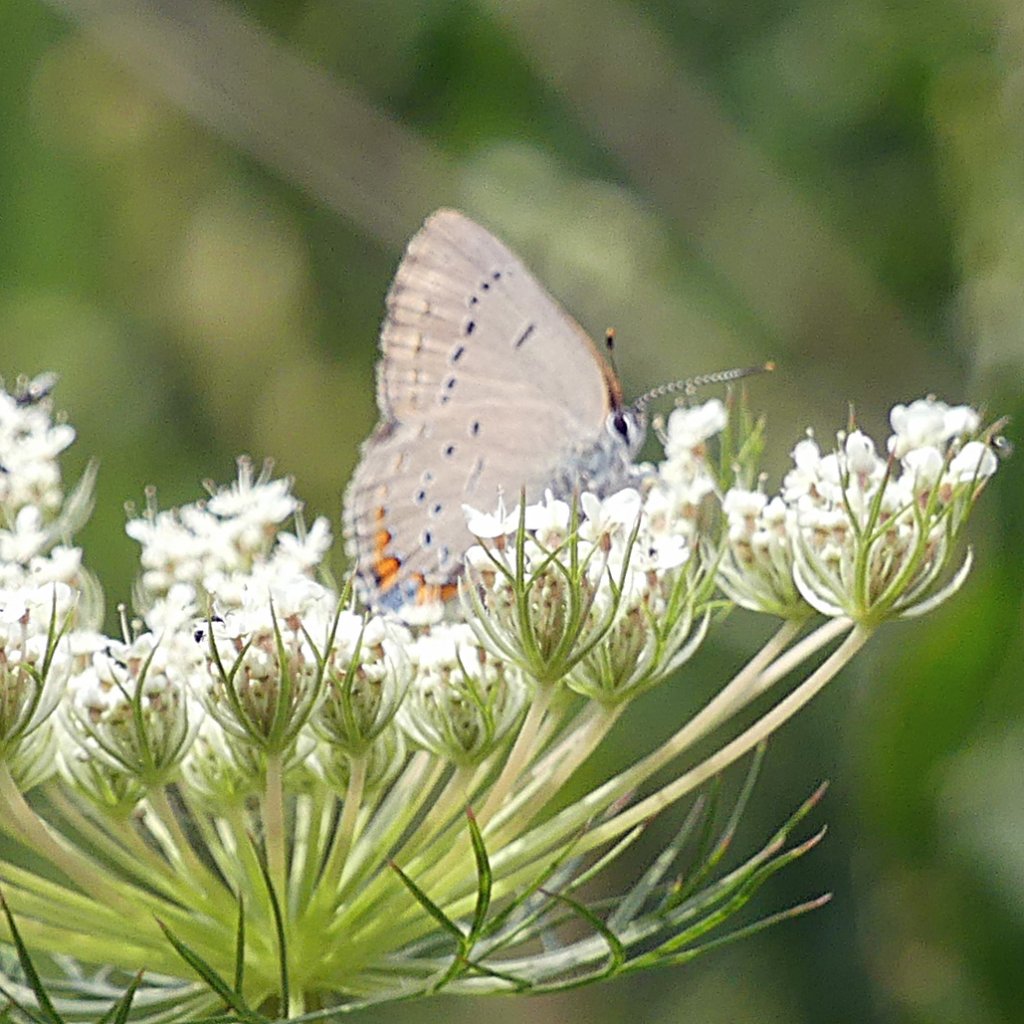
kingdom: Animalia
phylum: Arthropoda
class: Insecta
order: Lepidoptera
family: Lycaenidae
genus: Strymon
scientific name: Strymon acadica
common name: Acadian Hairstreak
